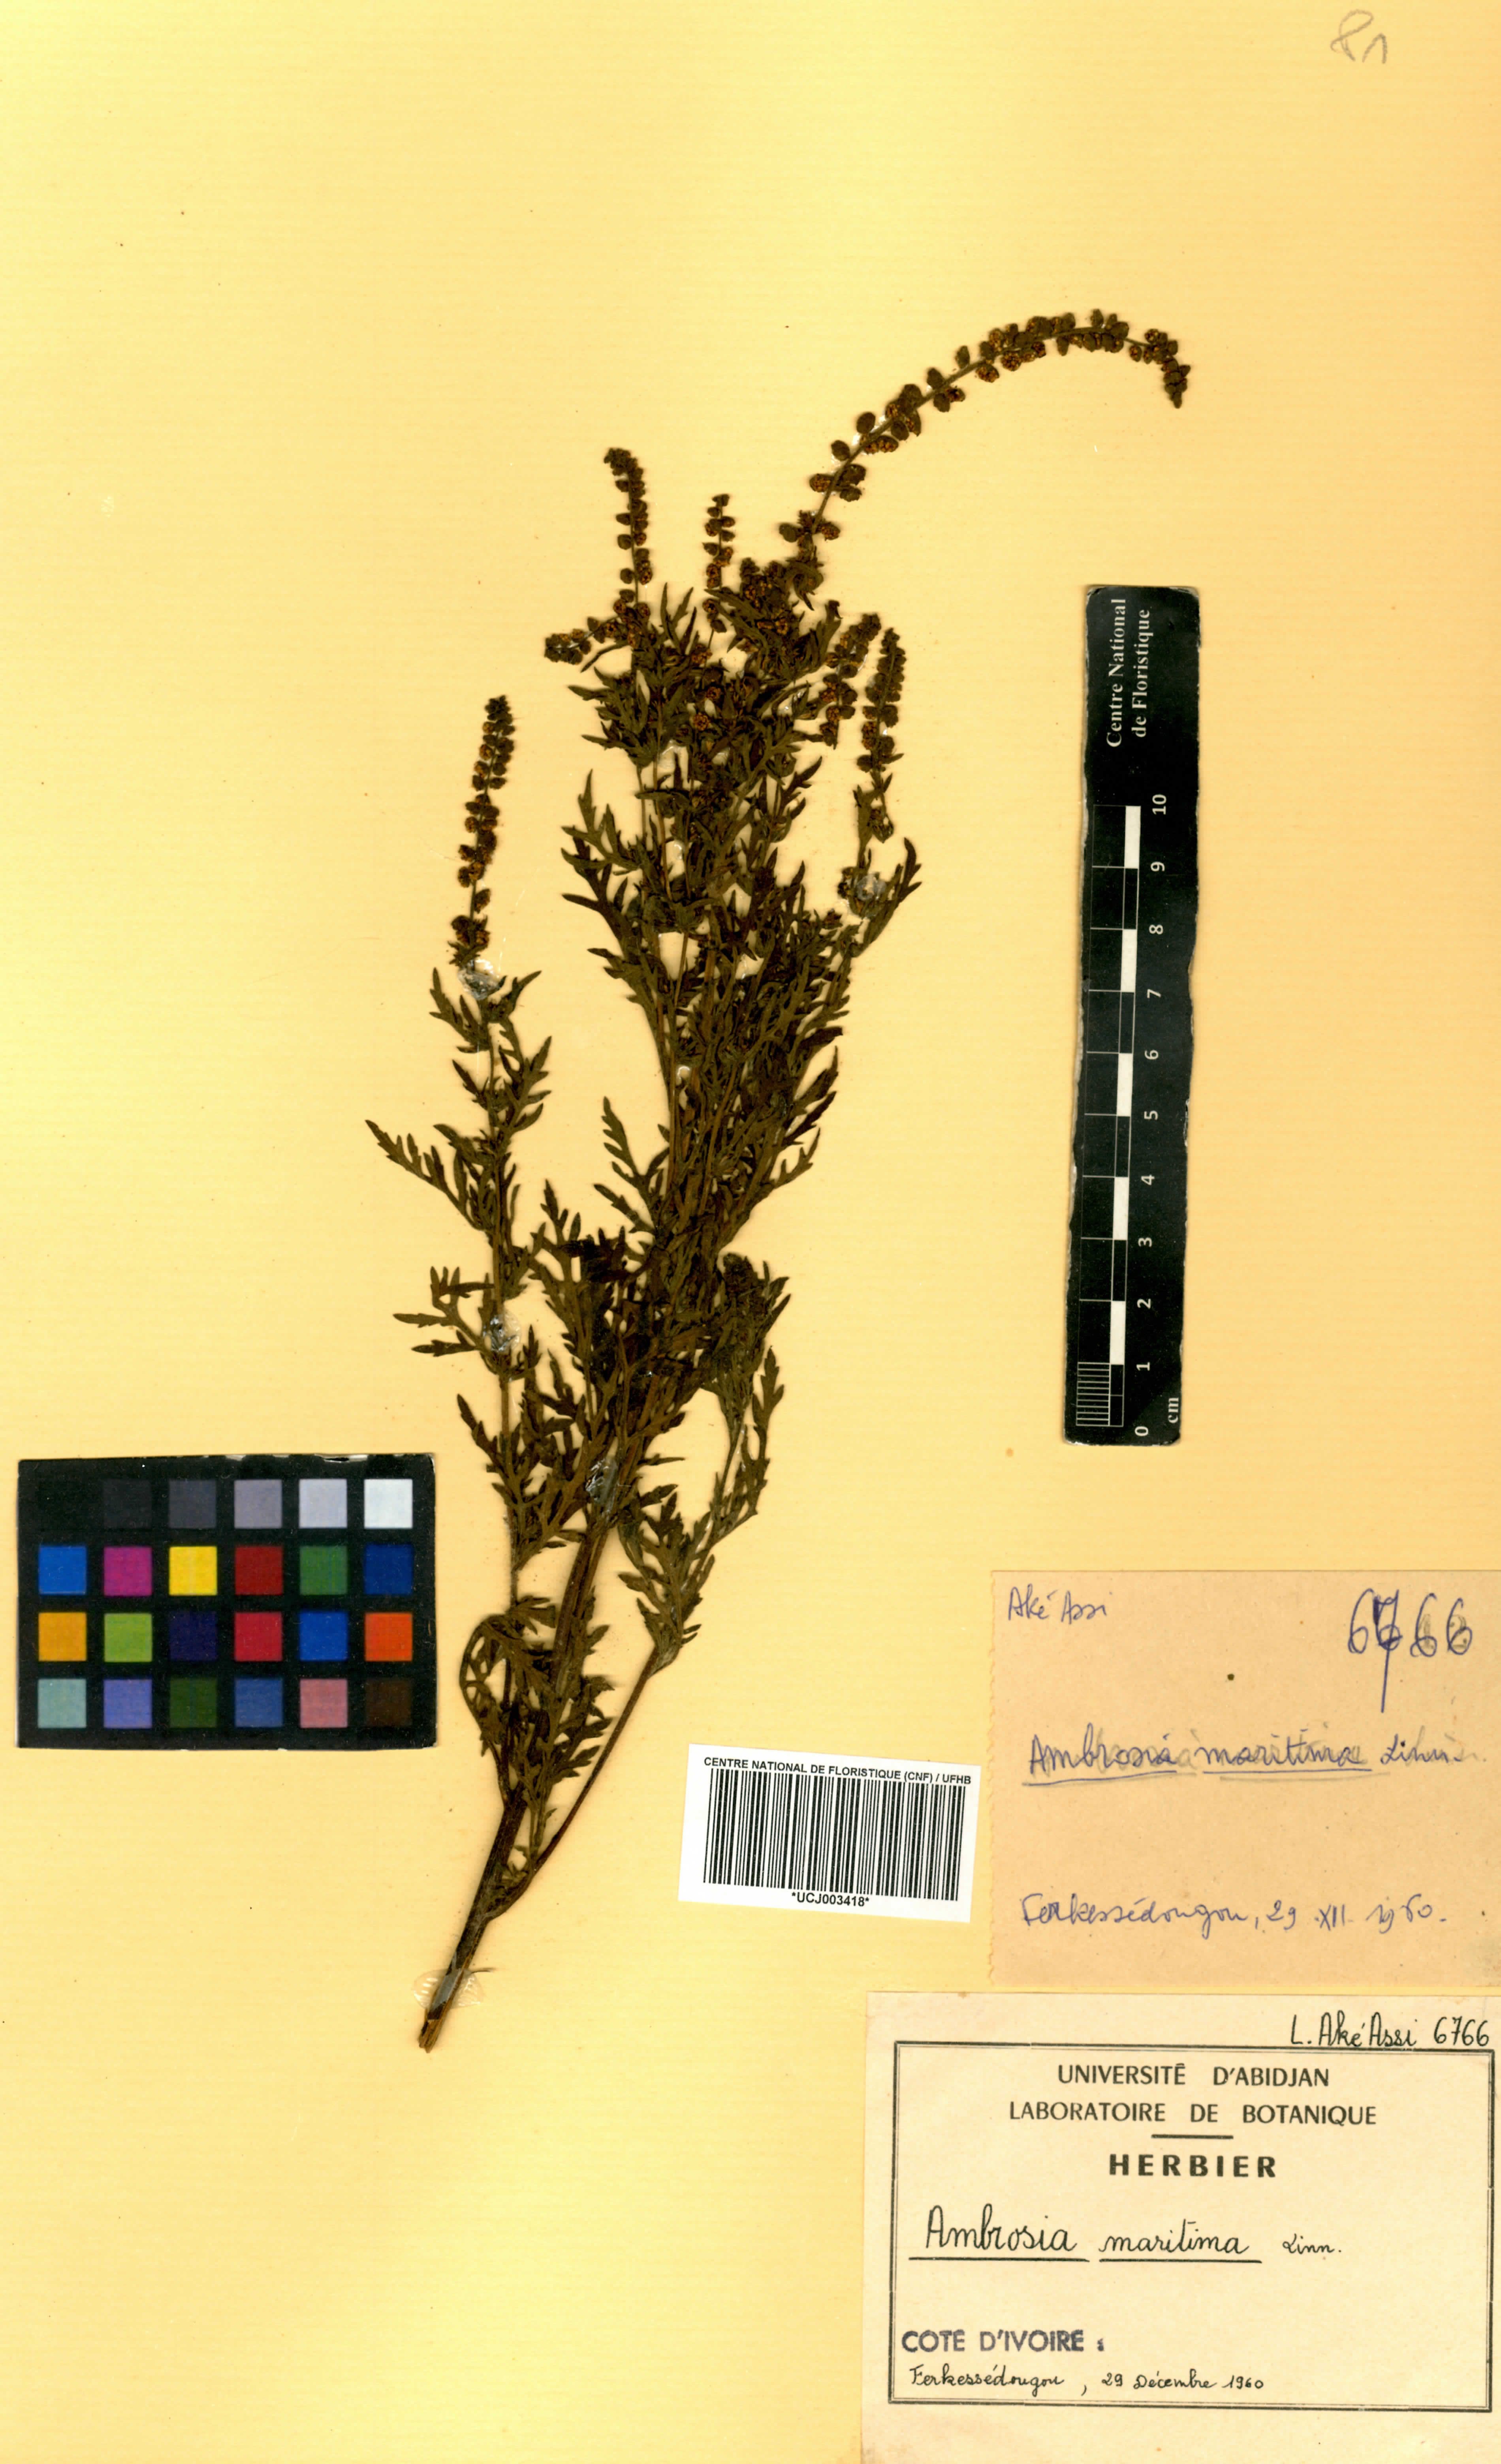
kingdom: Plantae
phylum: Tracheophyta
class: Magnoliopsida
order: Asterales
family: Asteraceae
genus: Ambrosia
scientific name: Ambrosia maritima
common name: Sea ambrosia
